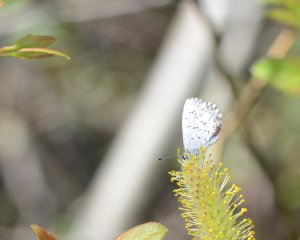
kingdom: Animalia
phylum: Arthropoda
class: Insecta
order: Lepidoptera
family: Lycaenidae
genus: Celastrina
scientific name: Celastrina lucia
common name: Northern Spring Azure
